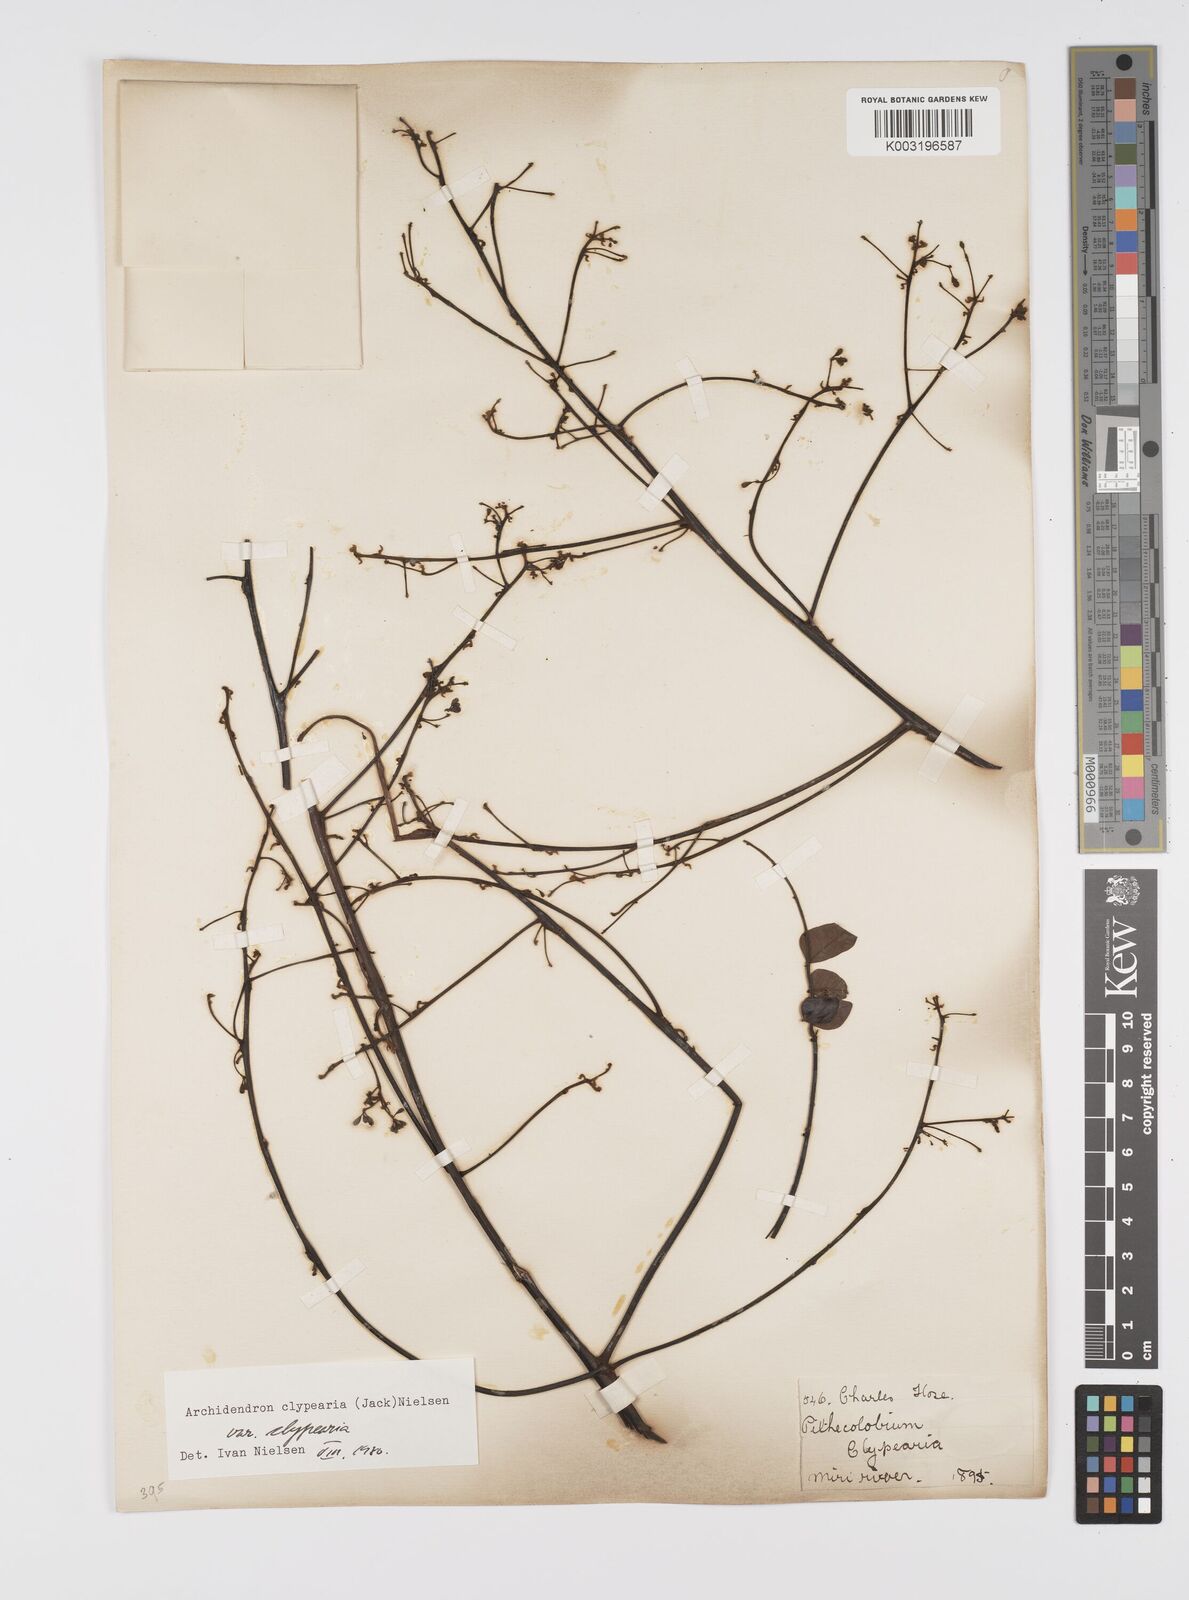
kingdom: Plantae
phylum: Tracheophyta
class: Magnoliopsida
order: Fabales
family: Fabaceae
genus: Archidendron
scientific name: Archidendron clypearia
